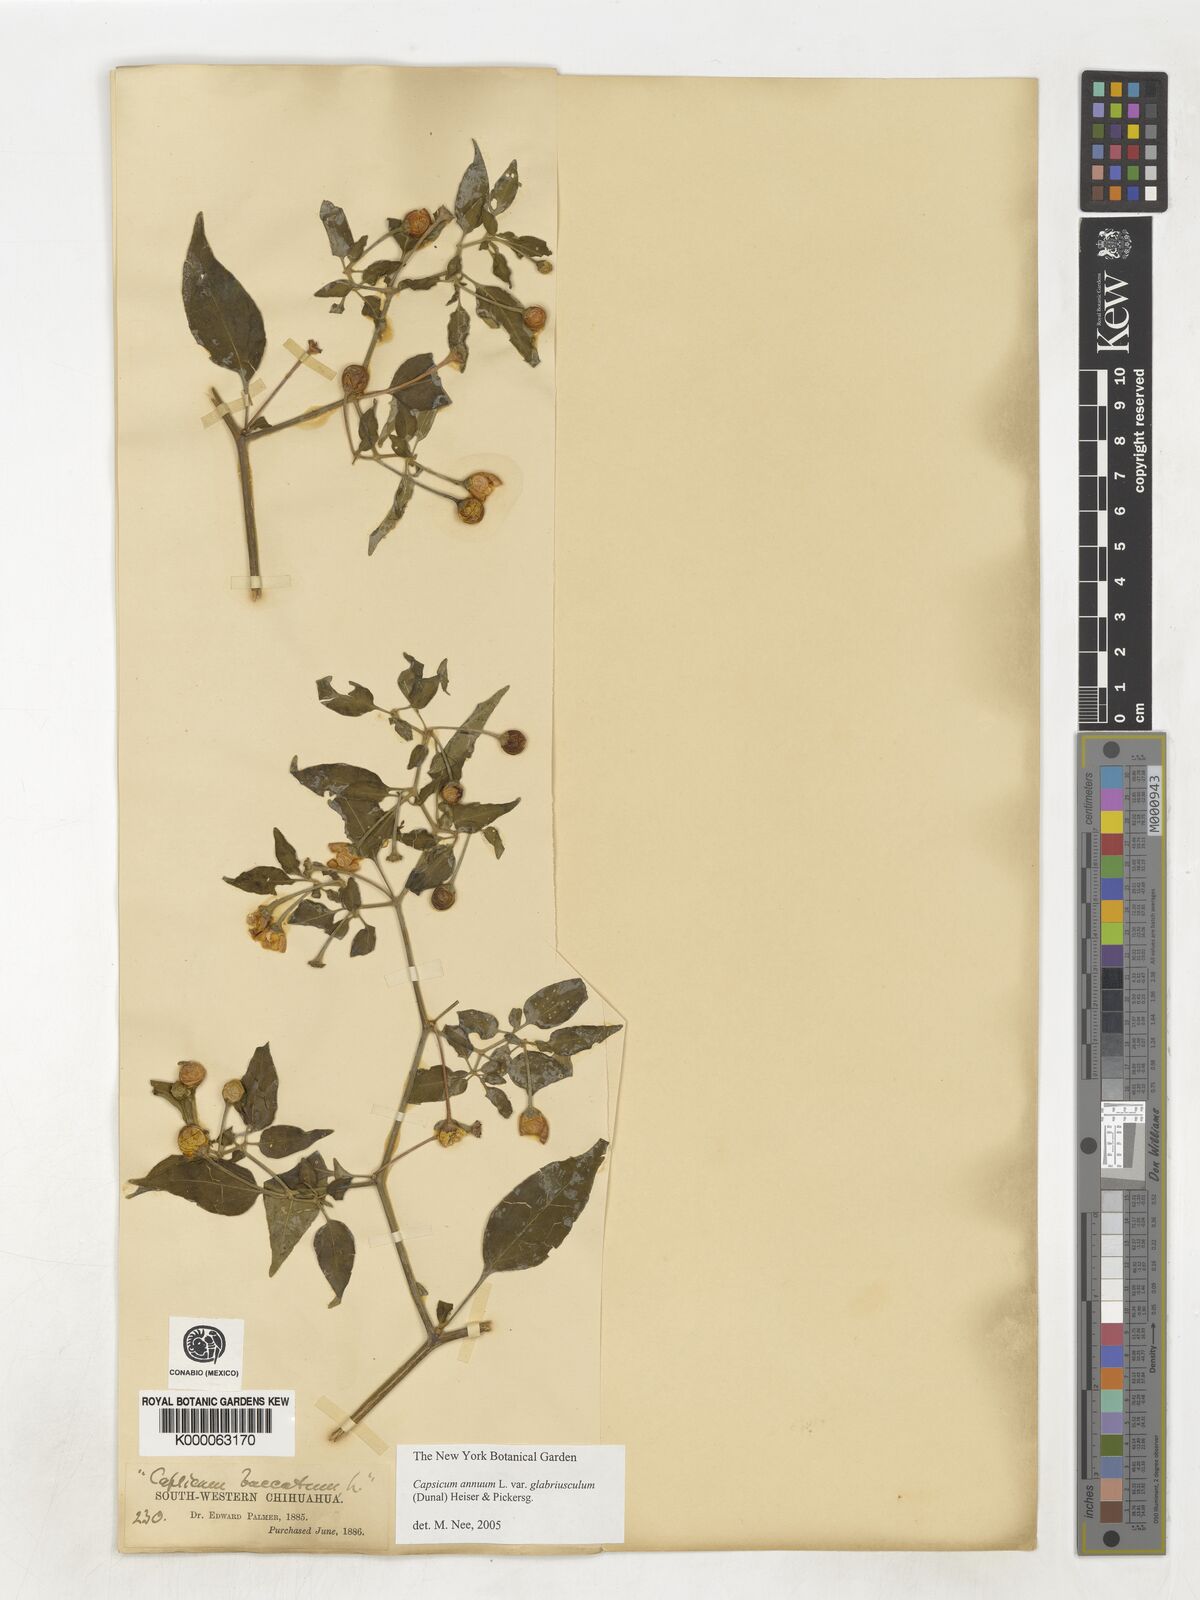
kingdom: Plantae
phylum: Tracheophyta
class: Magnoliopsida
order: Solanales
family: Solanaceae
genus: Capsicum
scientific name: Capsicum baccatum
